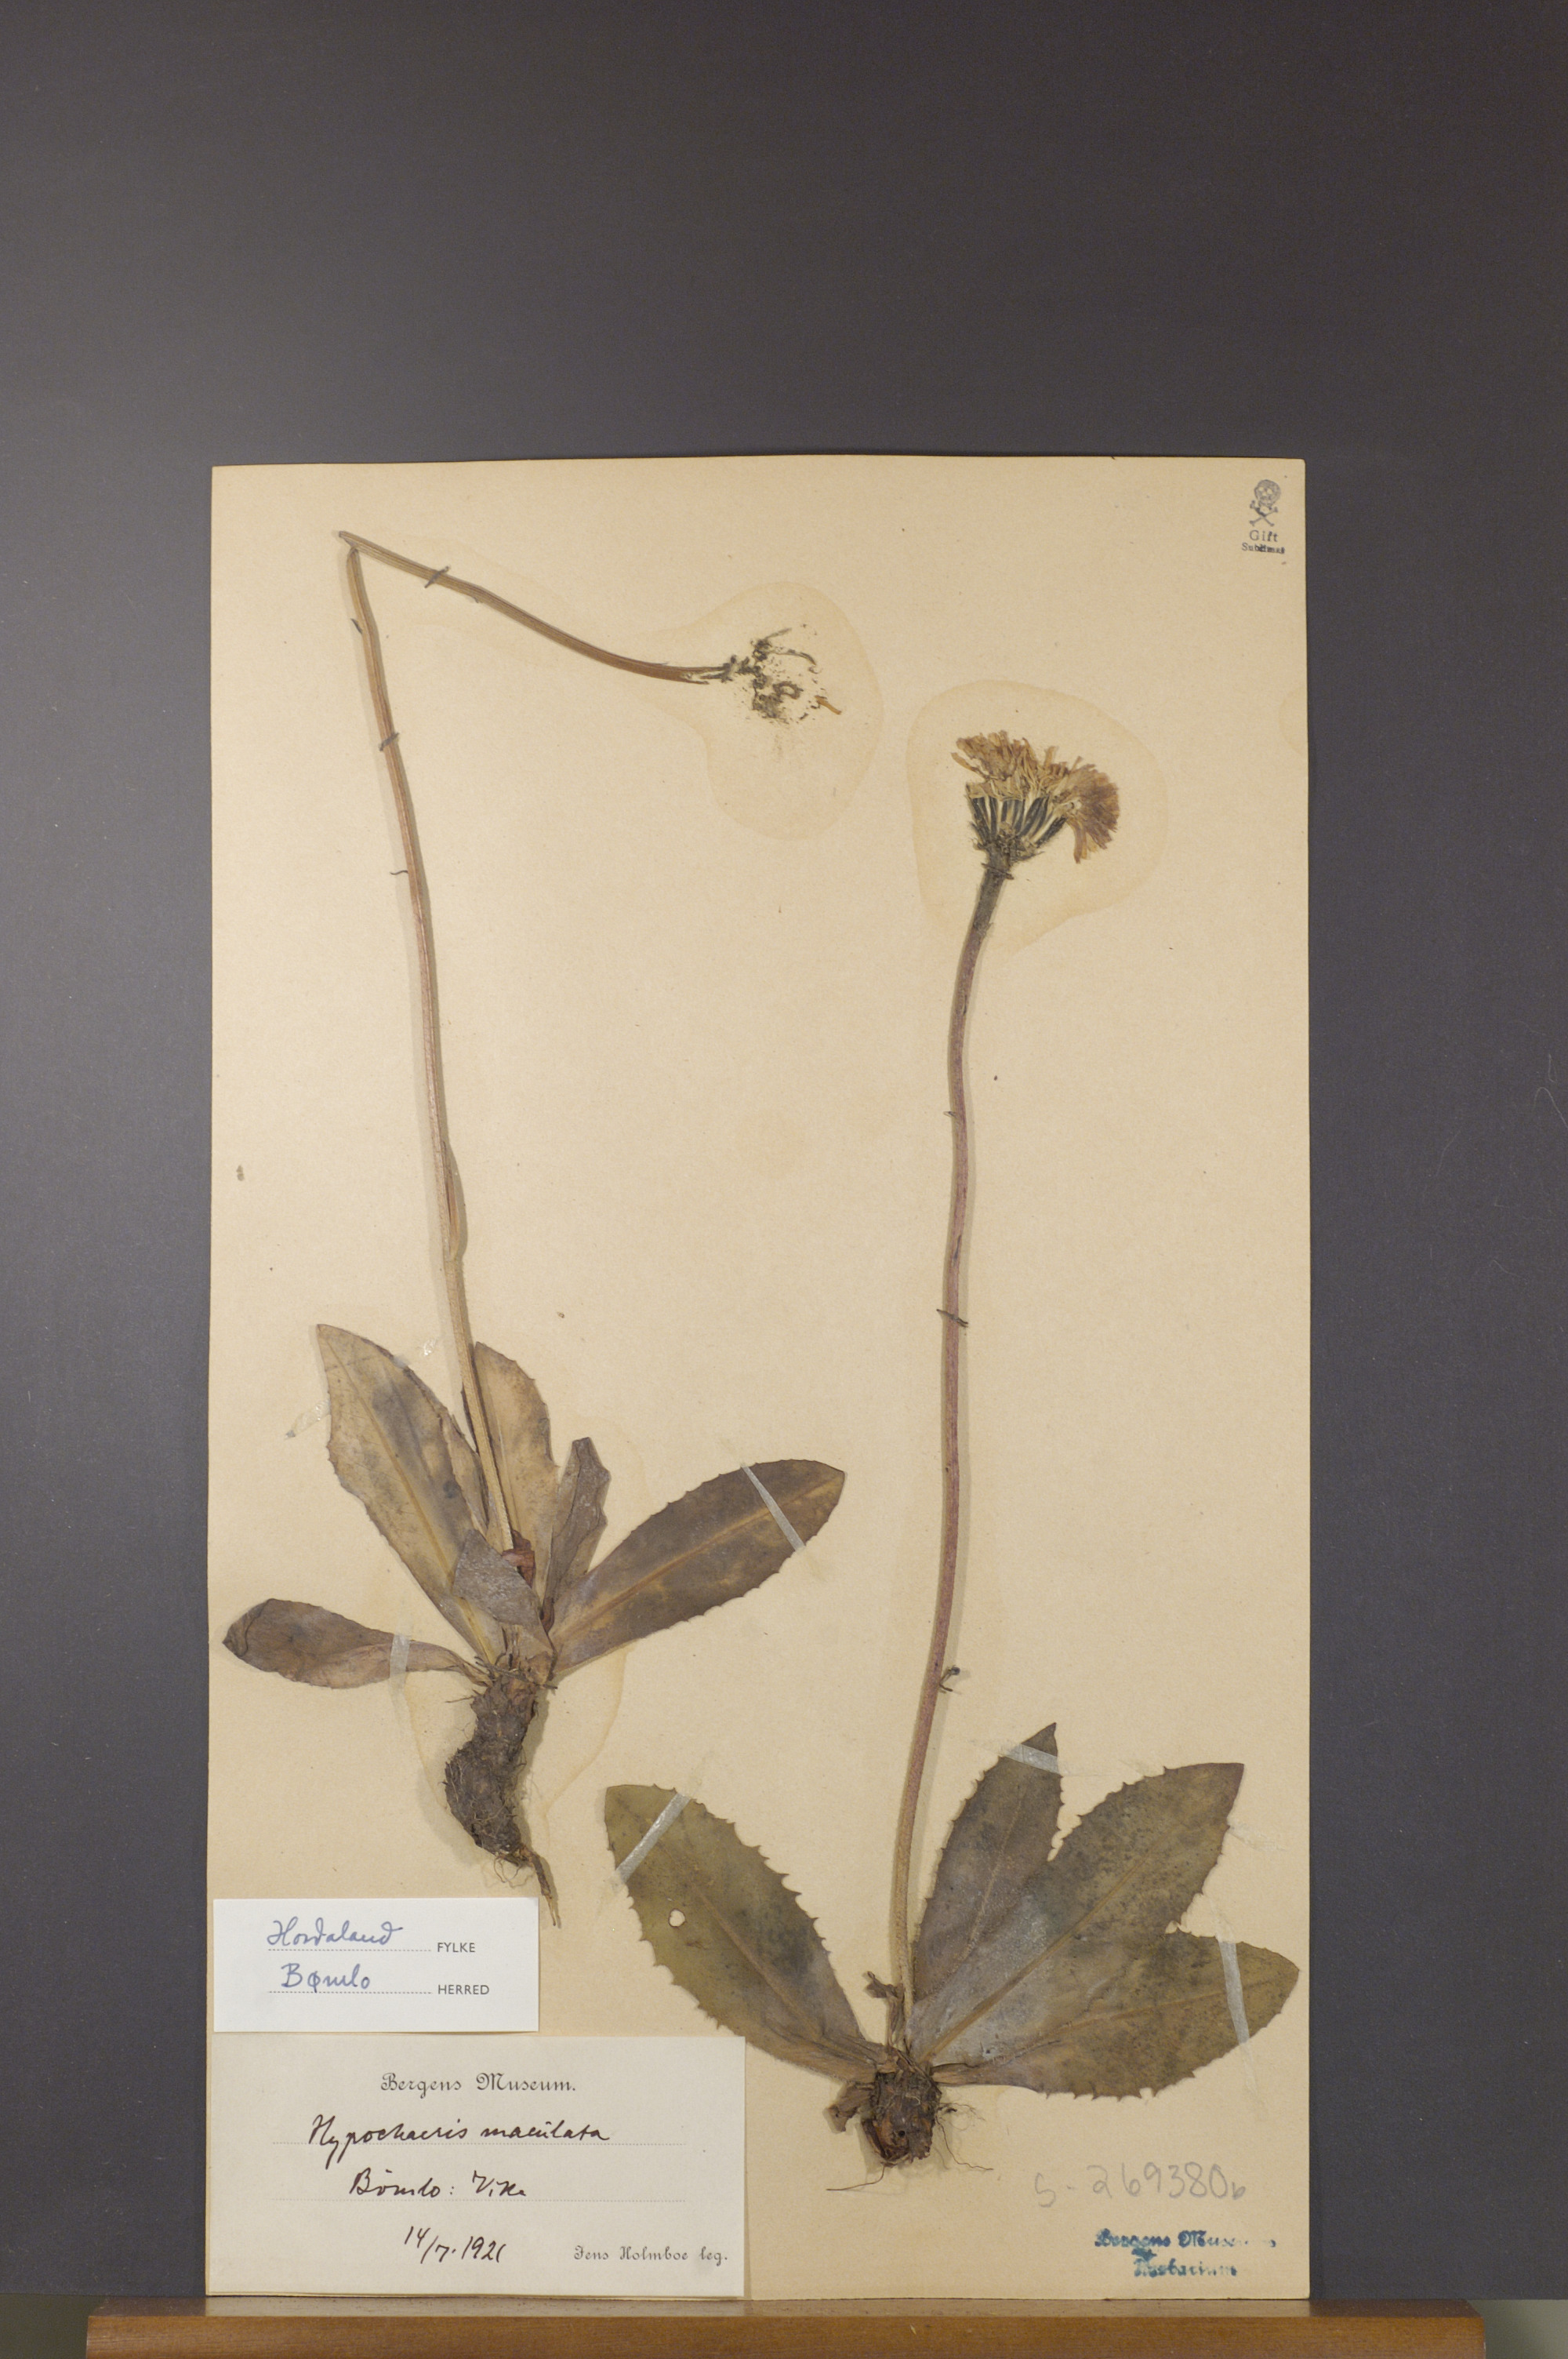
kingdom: Plantae
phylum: Tracheophyta
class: Magnoliopsida
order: Asterales
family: Asteraceae
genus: Trommsdorffia
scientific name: Trommsdorffia maculata
